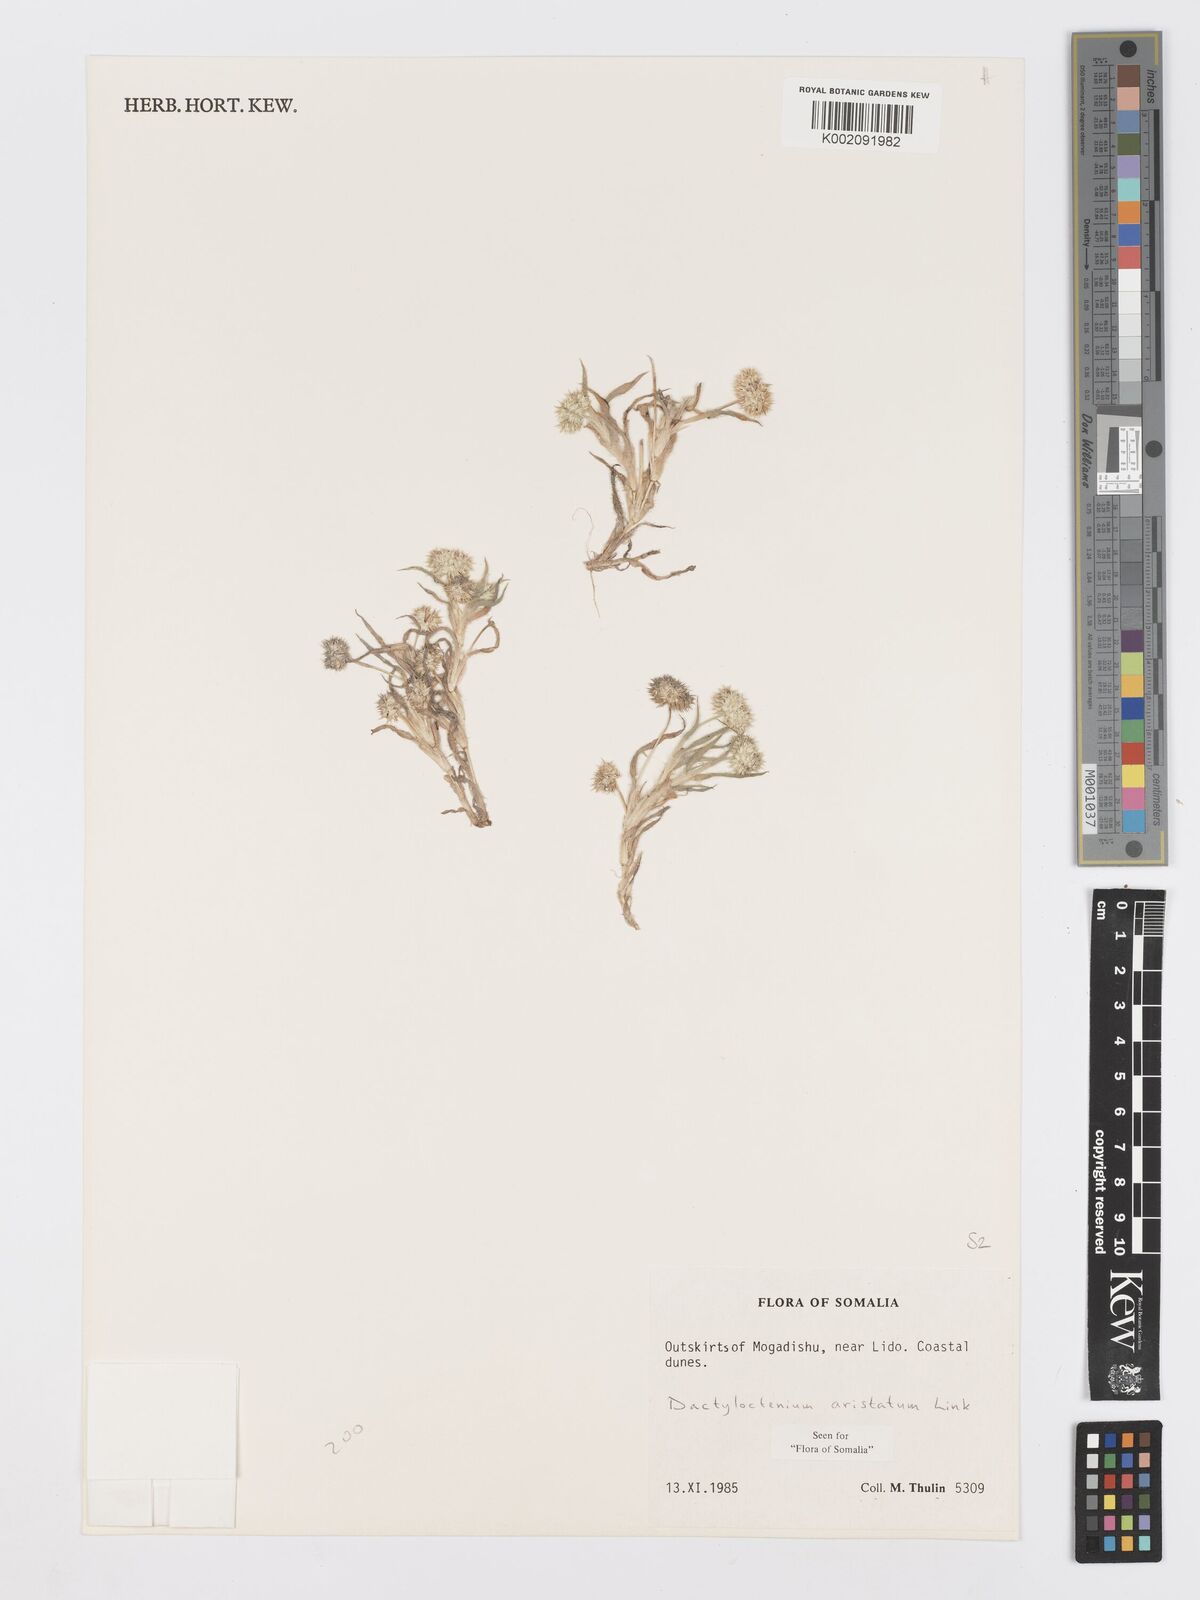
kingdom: Plantae
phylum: Tracheophyta
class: Liliopsida
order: Poales
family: Poaceae
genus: Dactyloctenium
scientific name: Dactyloctenium aristatum
